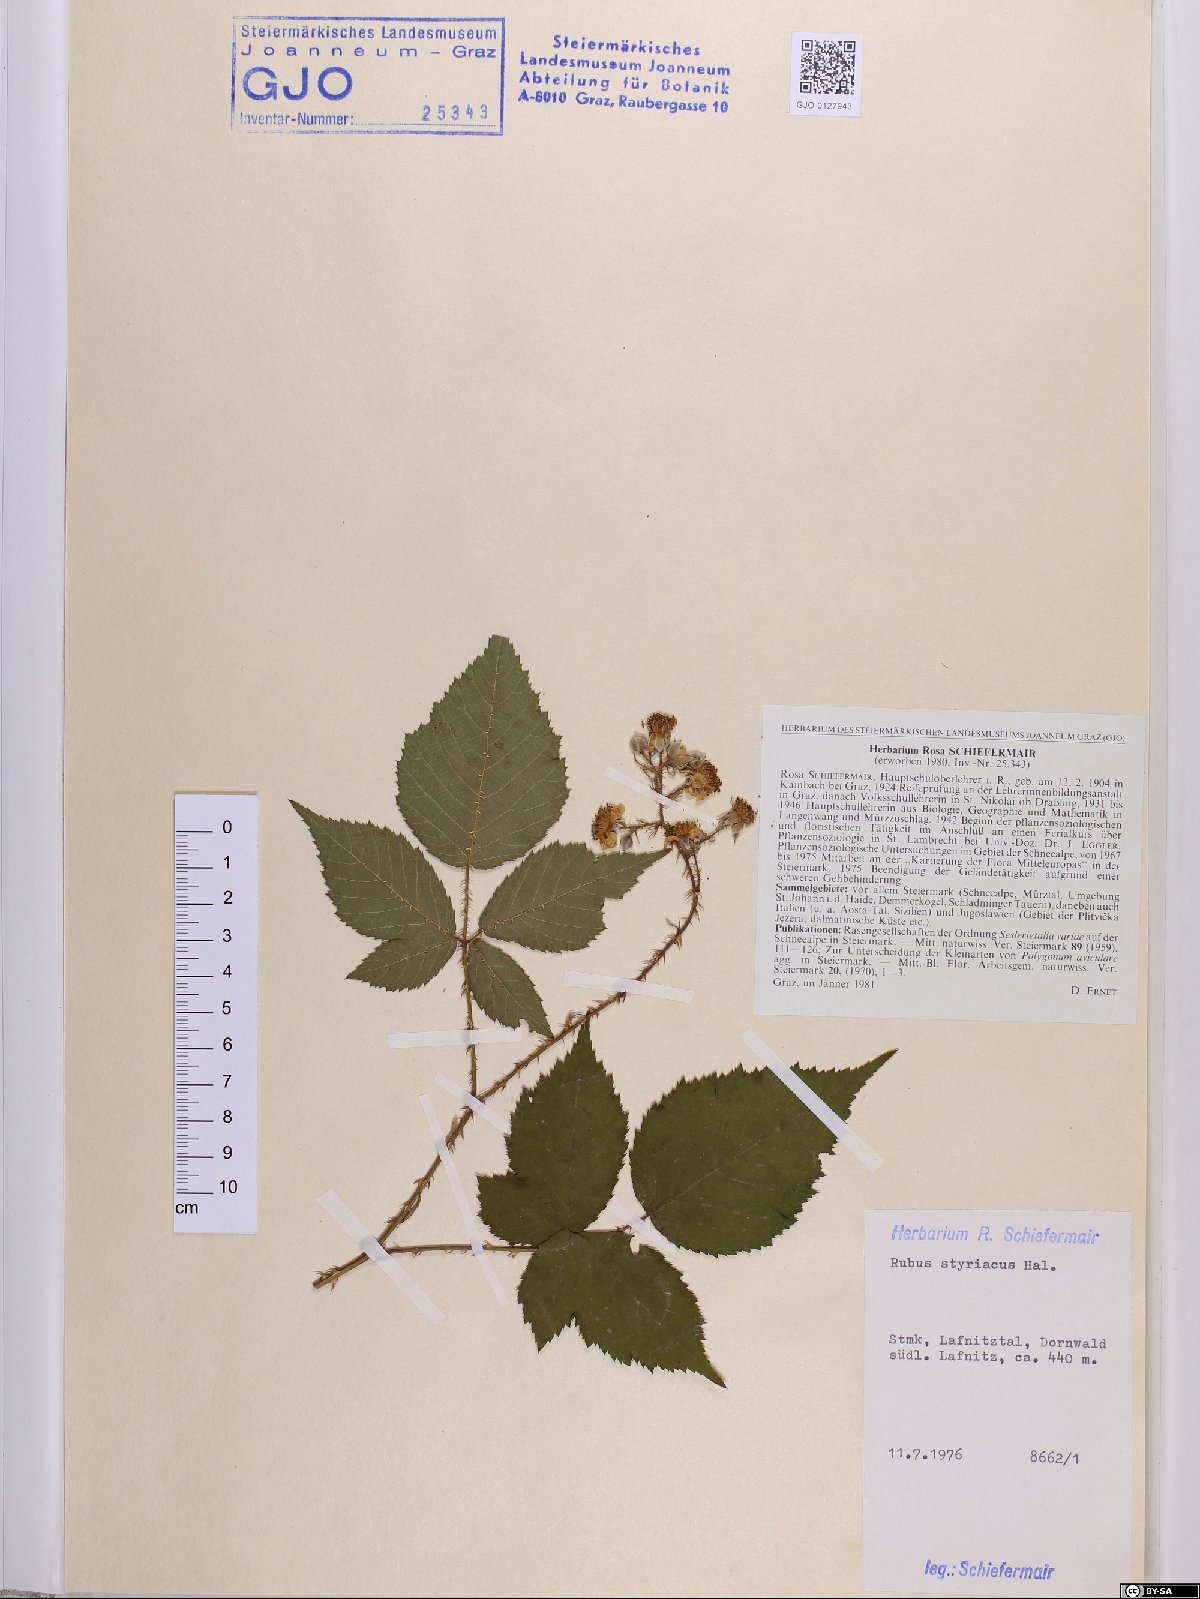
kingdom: Plantae
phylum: Tracheophyta
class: Magnoliopsida
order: Rosales
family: Rosaceae
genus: Rubus
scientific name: Rubus styriacus
